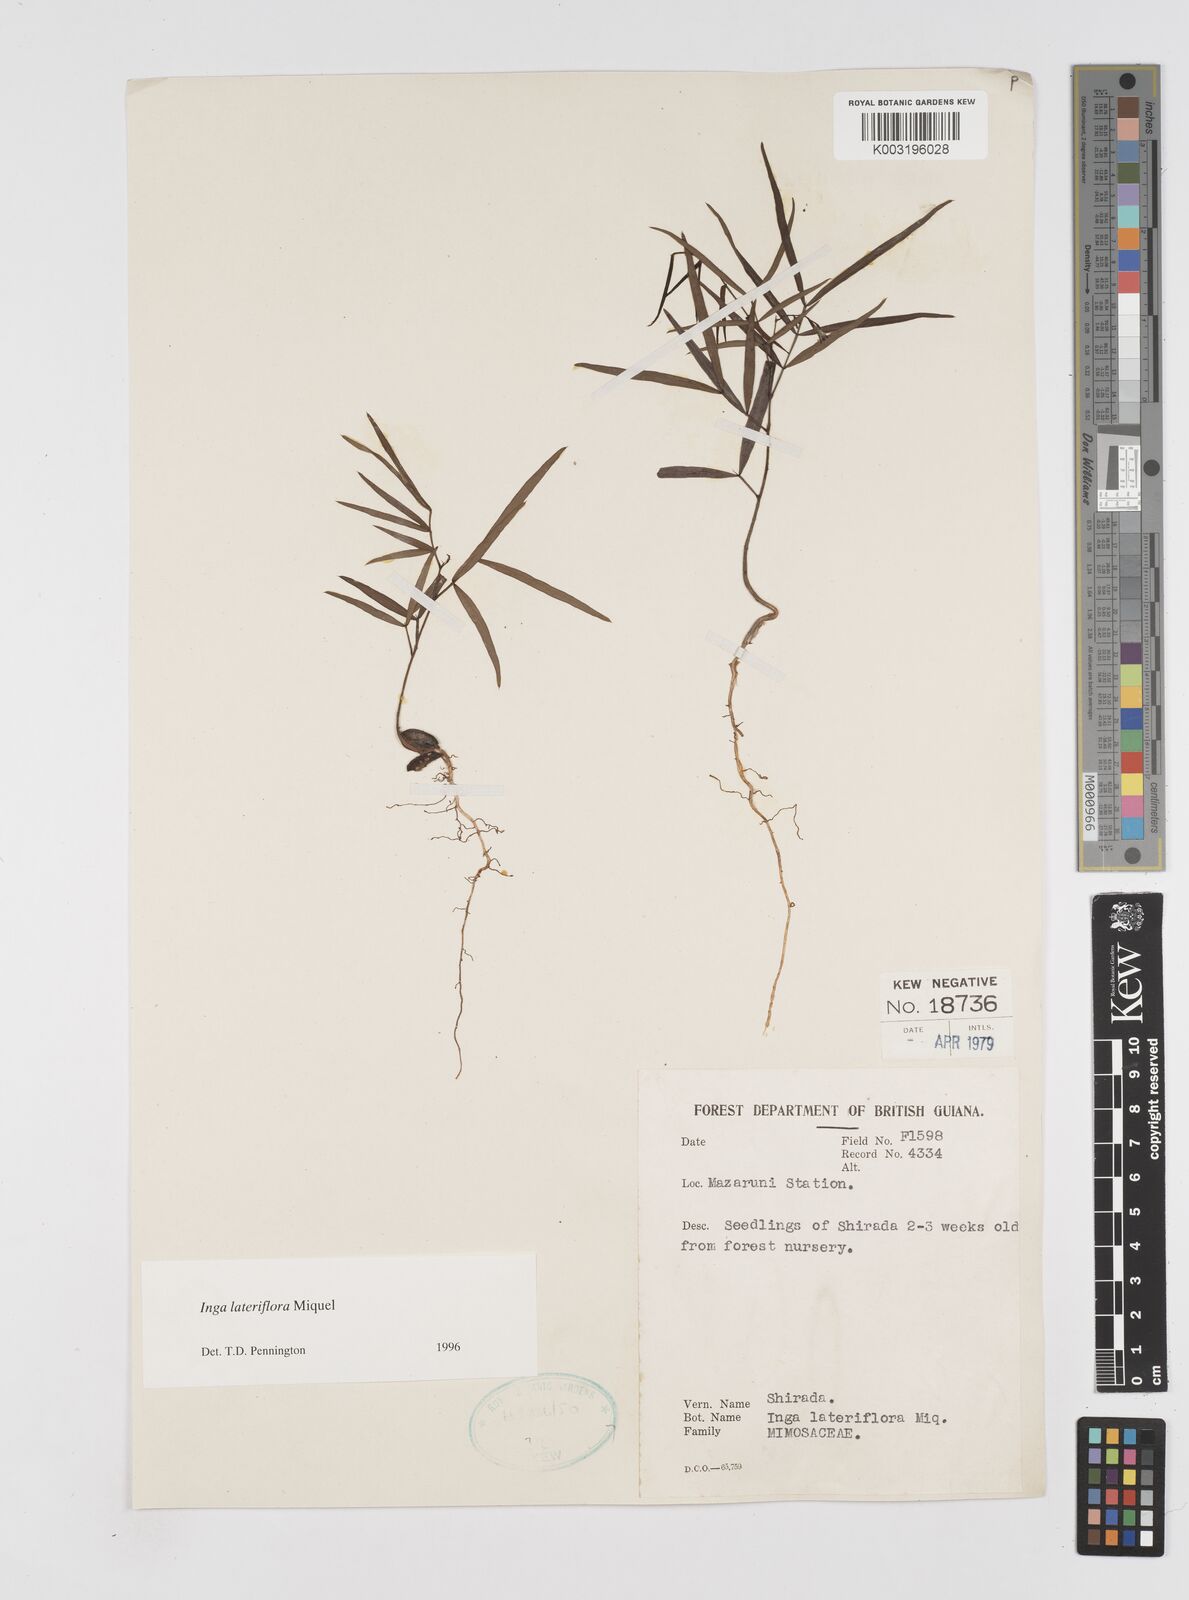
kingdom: Plantae
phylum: Tracheophyta
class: Magnoliopsida
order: Fabales
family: Fabaceae
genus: Inga
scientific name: Inga lateriflora
